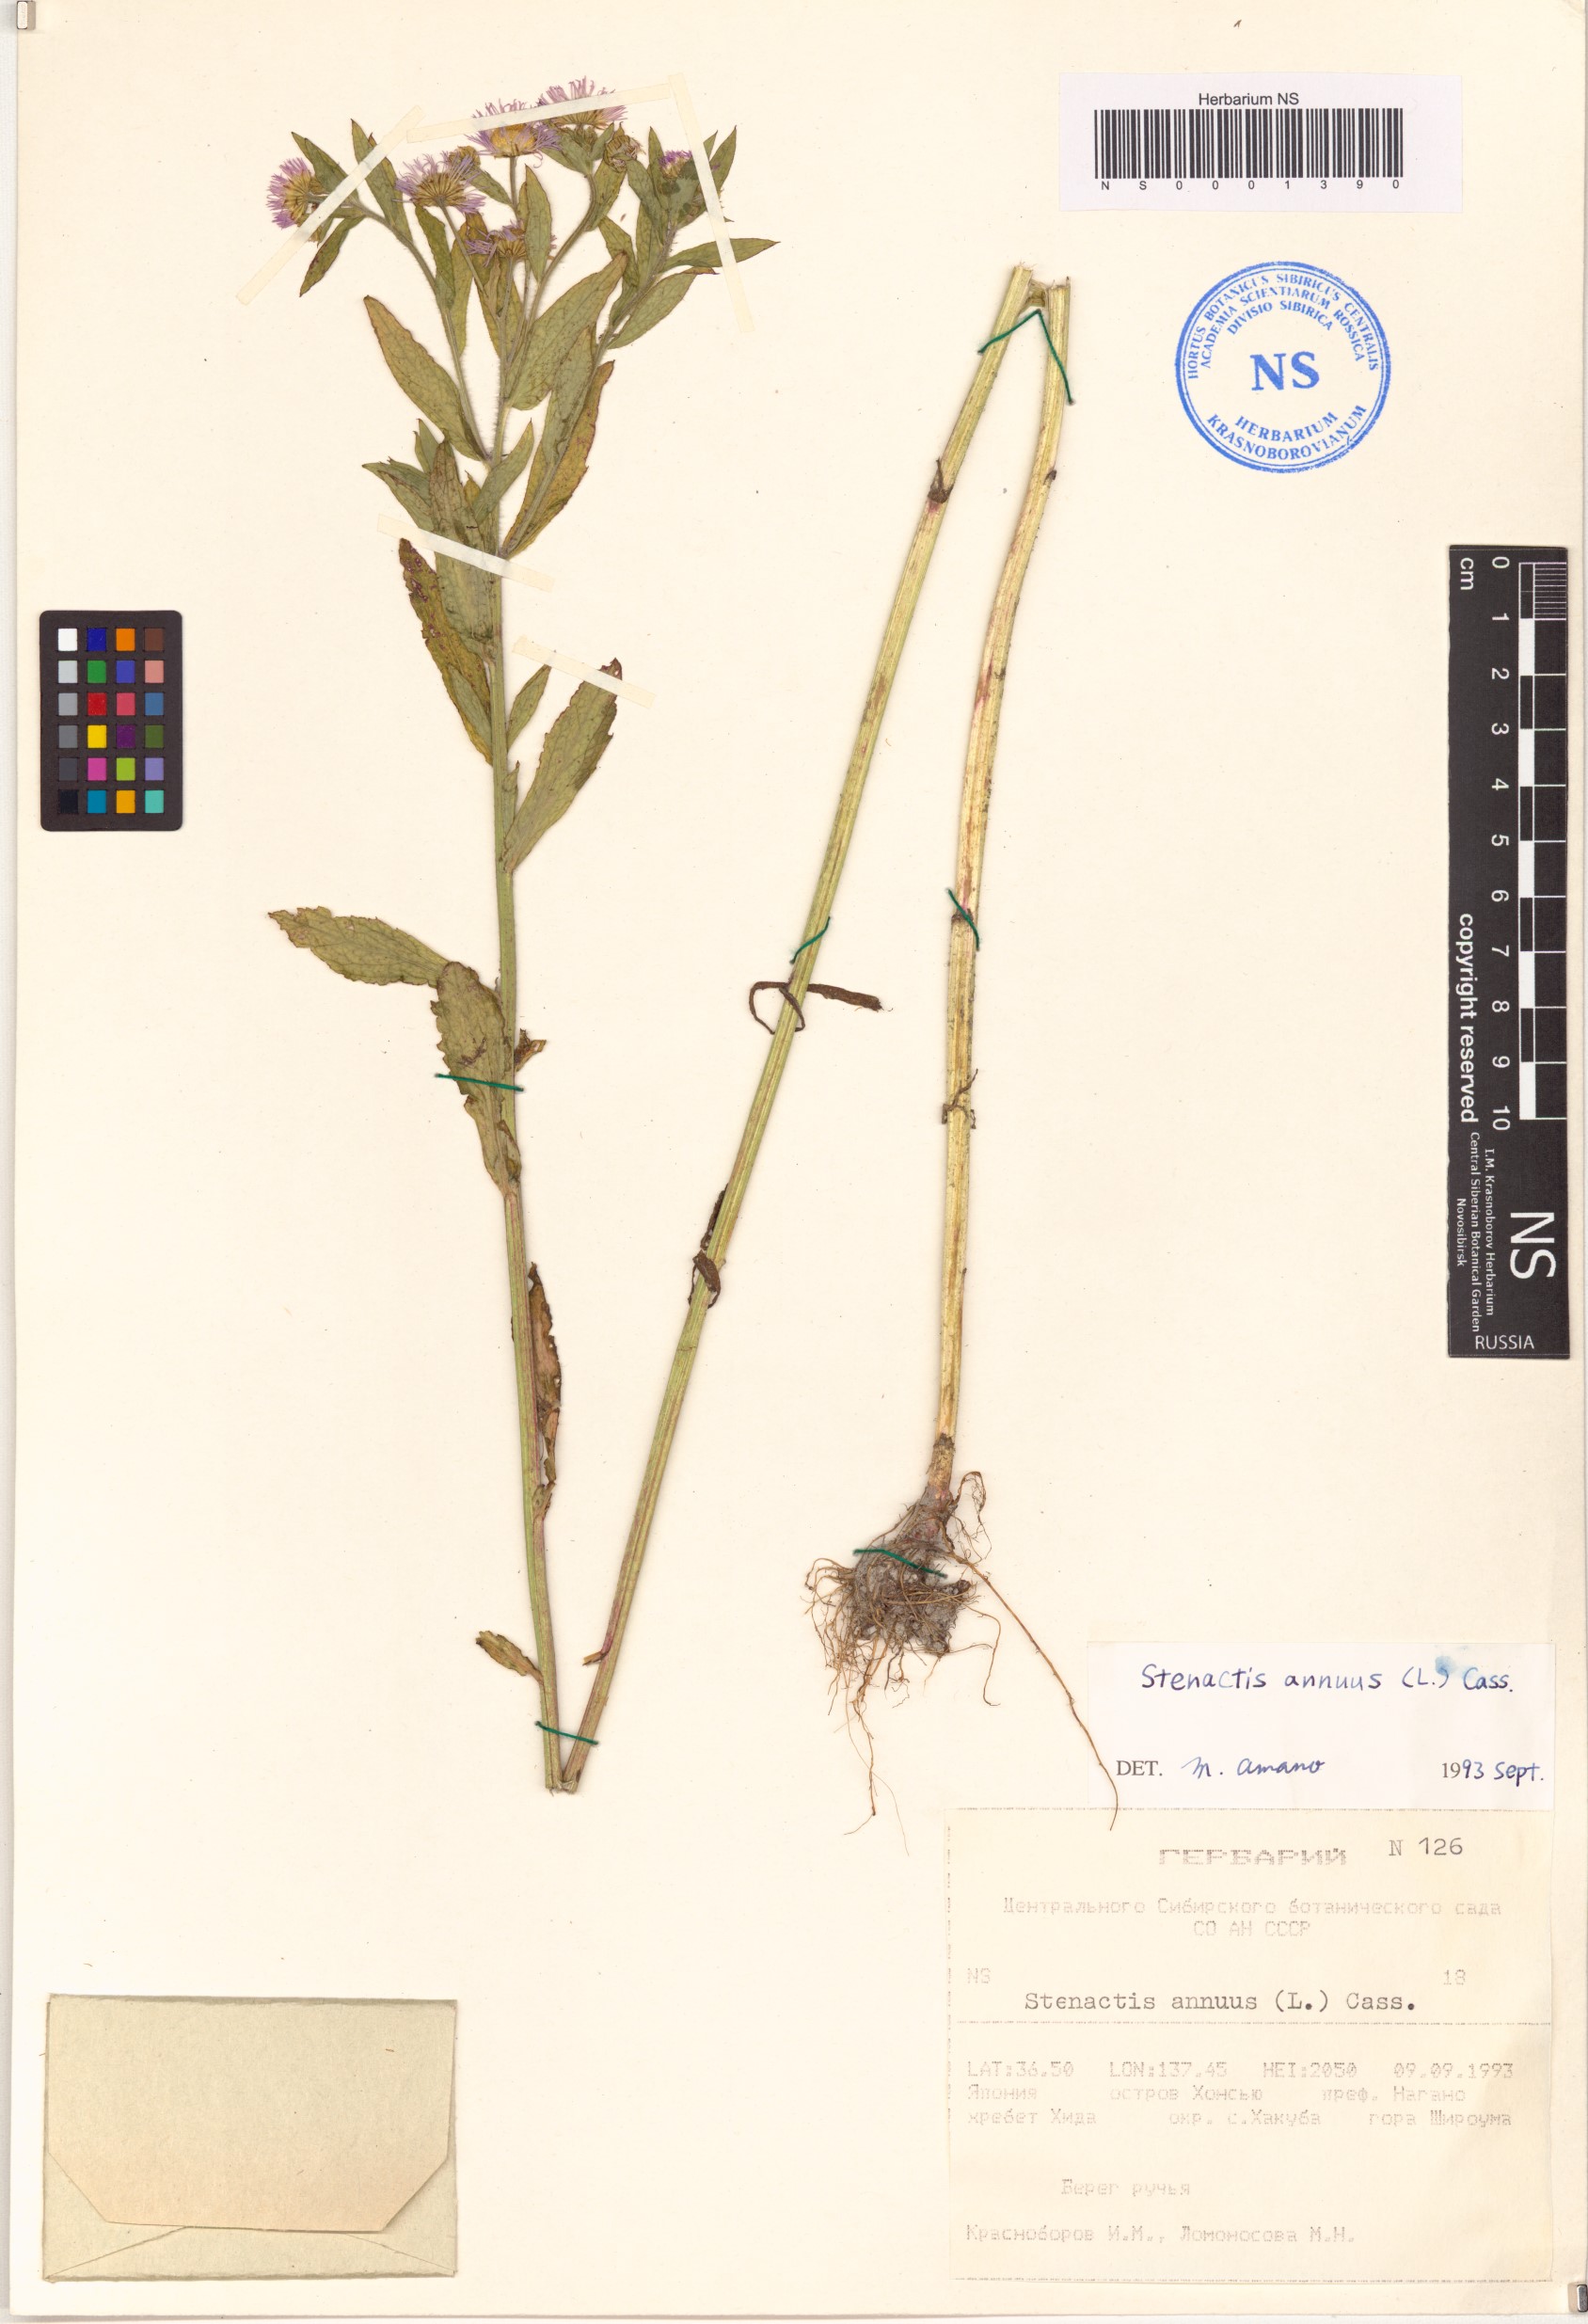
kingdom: Plantae
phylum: Tracheophyta
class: Magnoliopsida
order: Asterales
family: Asteraceae
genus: Erigeron
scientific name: Erigeron annuus
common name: Tall fleabane
